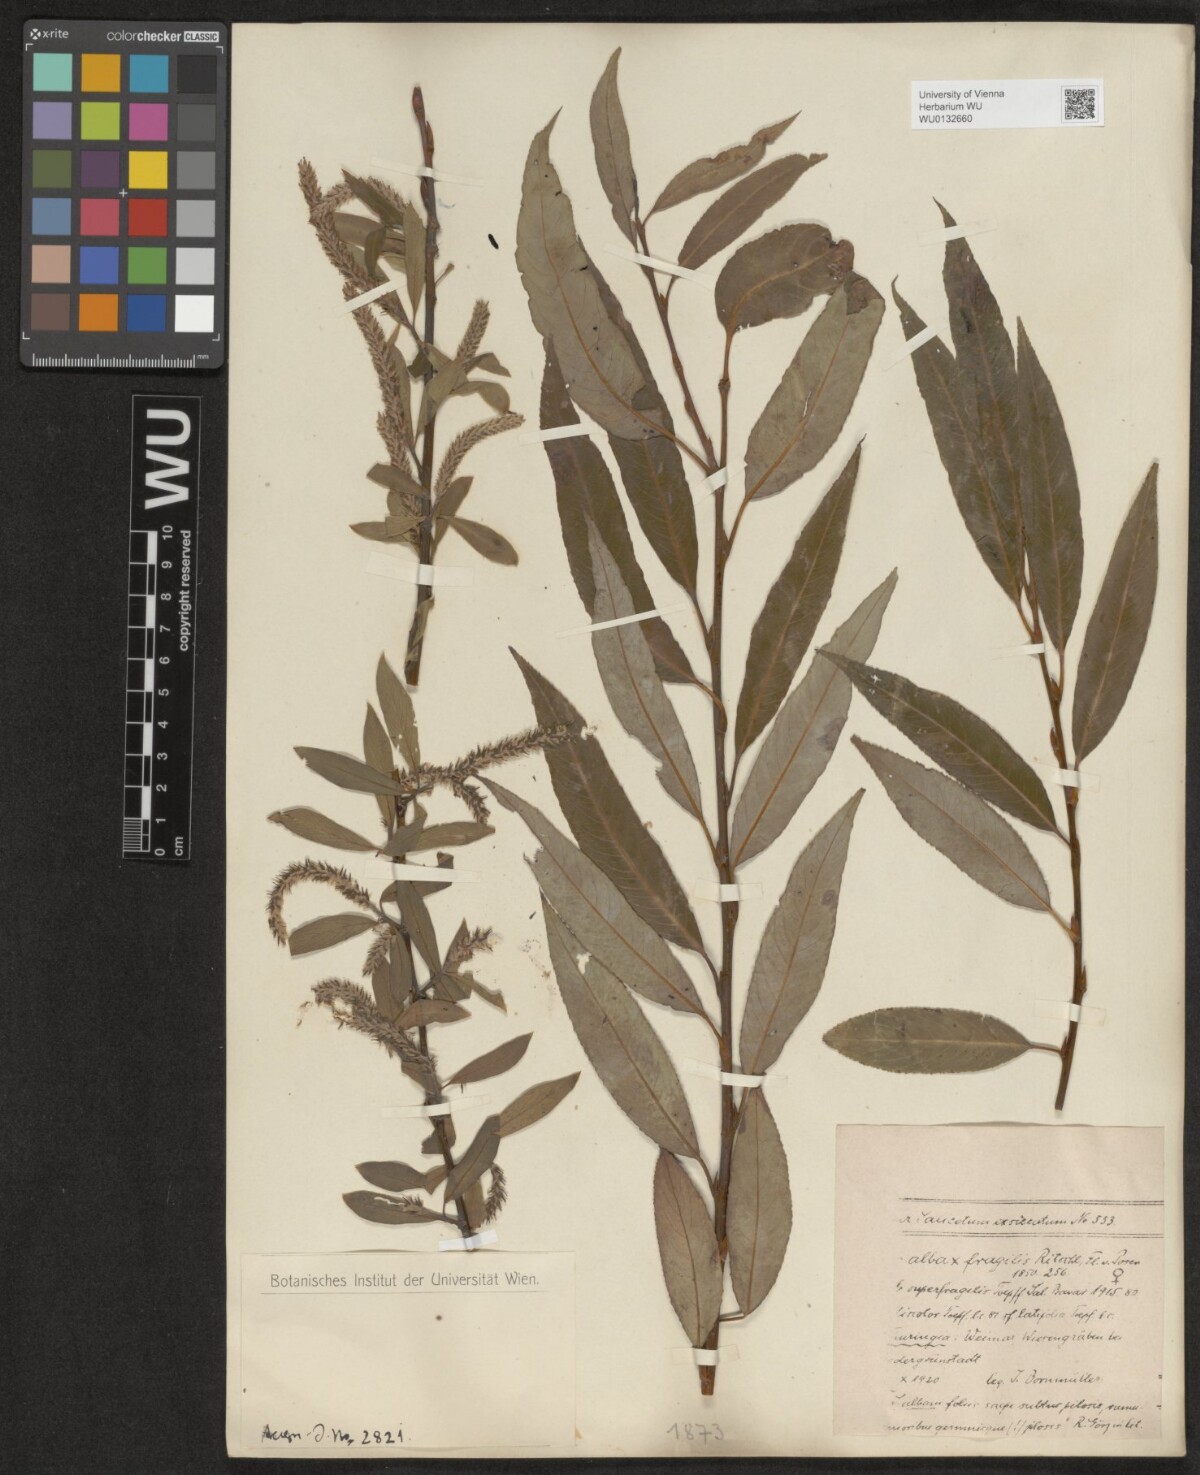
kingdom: Plantae
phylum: Tracheophyta
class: Magnoliopsida
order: Malpighiales
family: Salicaceae
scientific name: Salicaceae
